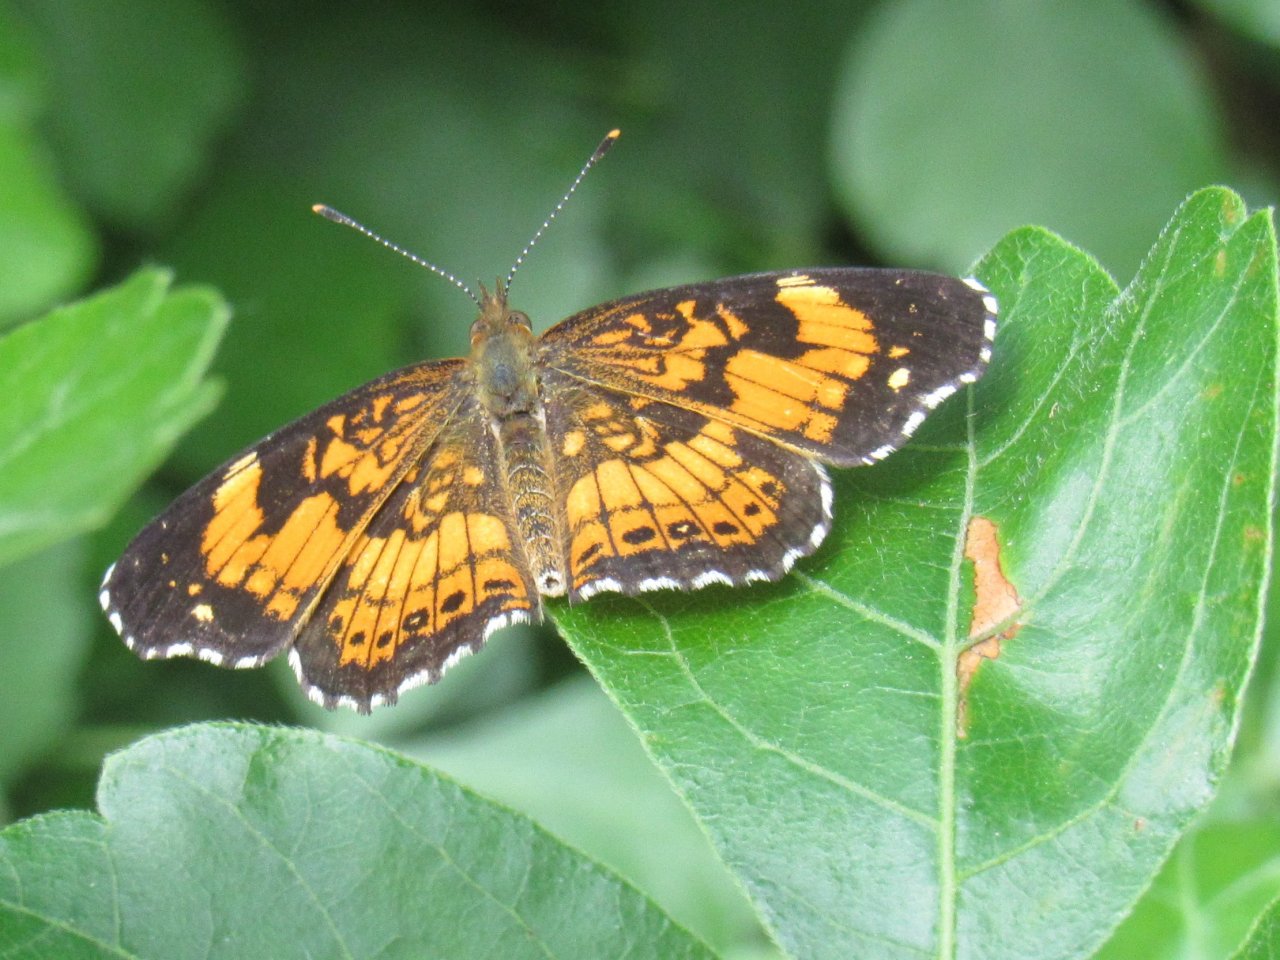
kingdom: Animalia
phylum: Arthropoda
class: Insecta
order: Lepidoptera
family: Nymphalidae
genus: Chlosyne
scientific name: Chlosyne nycteis
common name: Silvery Checkerspot
